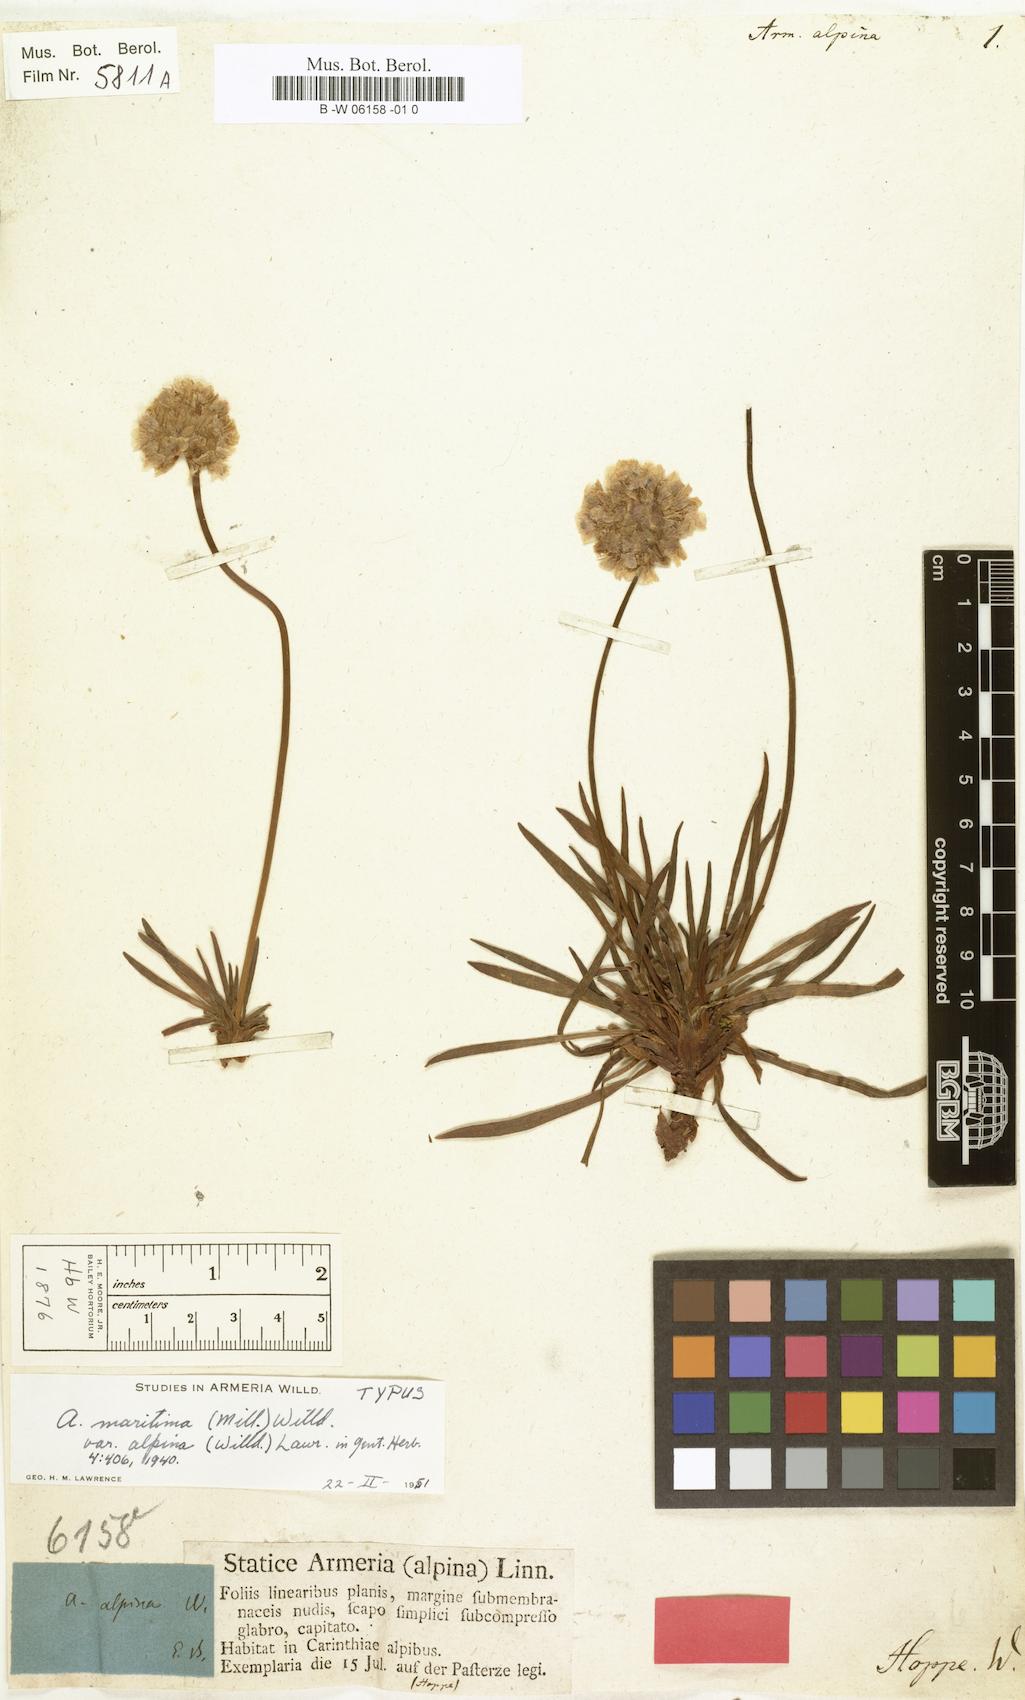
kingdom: Plantae
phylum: Tracheophyta
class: Magnoliopsida
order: Caryophyllales
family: Plumbaginaceae
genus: Armeria
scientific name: Armeria alpina
